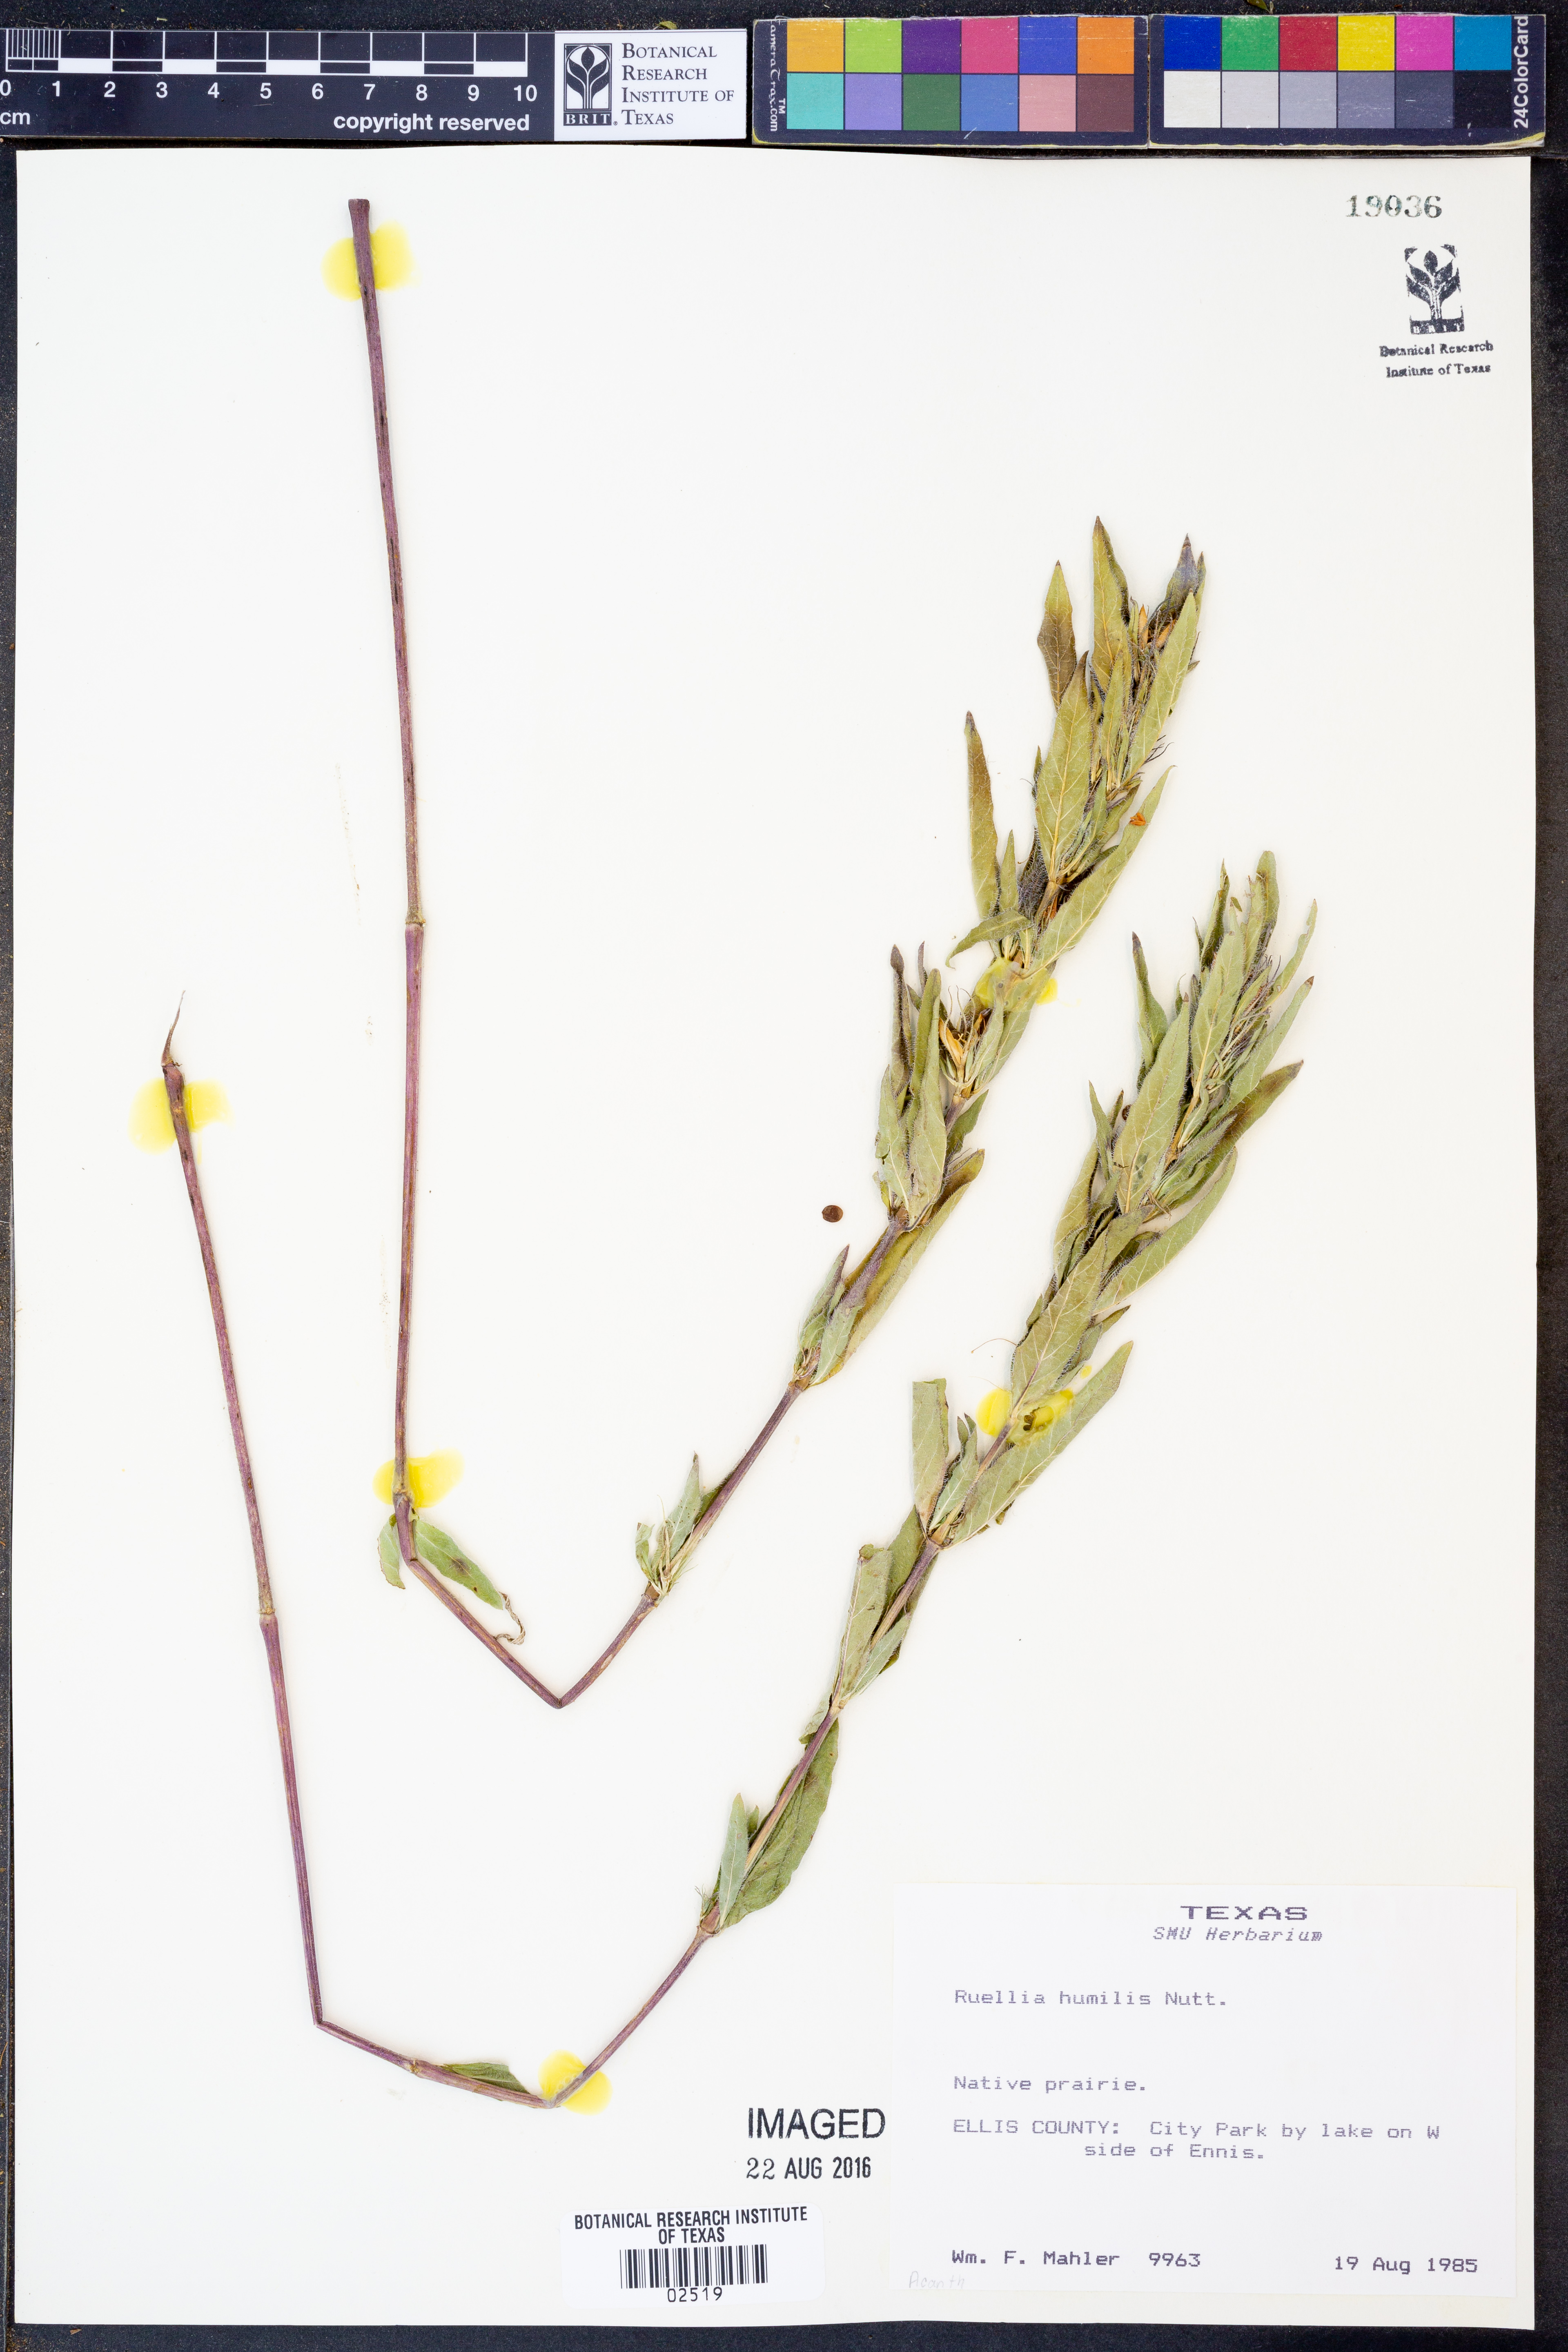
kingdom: Plantae
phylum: Tracheophyta
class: Magnoliopsida
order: Lamiales
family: Acanthaceae
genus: Ruellia
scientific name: Ruellia humilis
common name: Fringe-leaf ruellia
